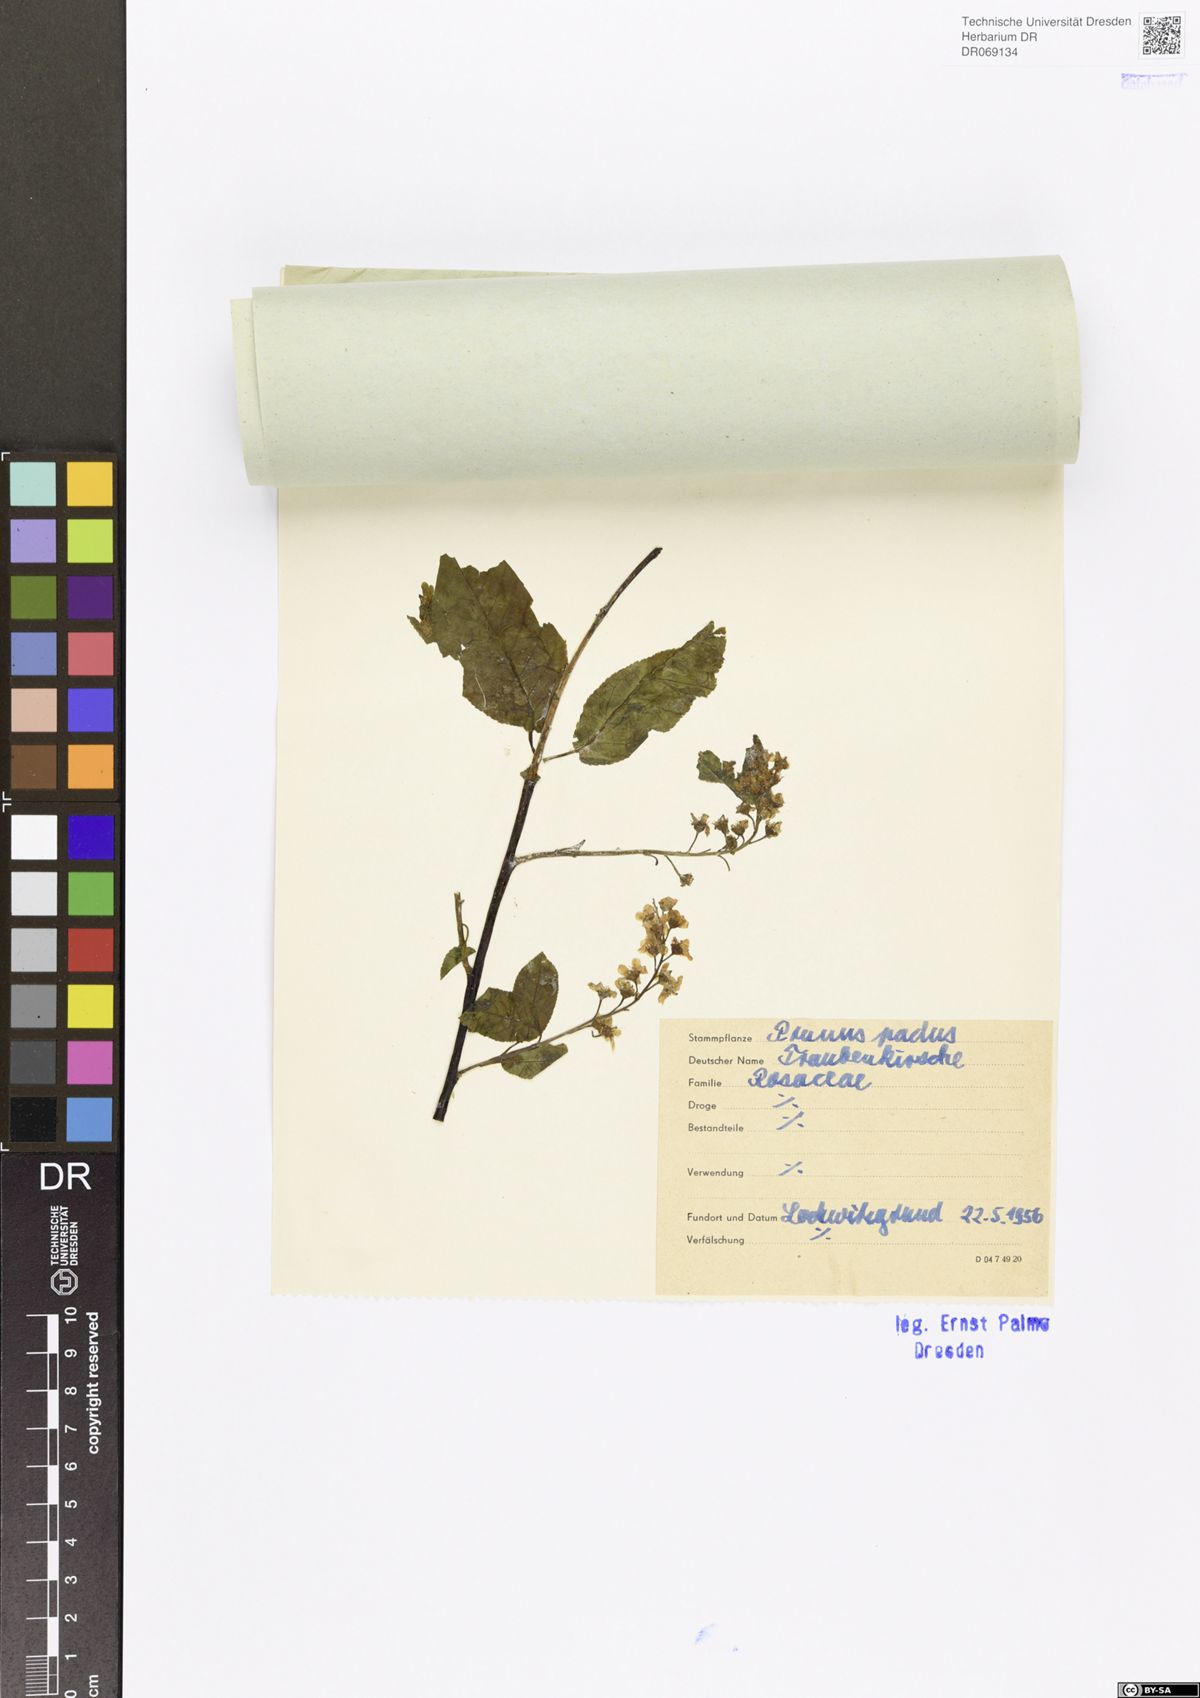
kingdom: Plantae
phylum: Tracheophyta
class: Magnoliopsida
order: Rosales
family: Rosaceae
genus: Prunus
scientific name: Prunus padus
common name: Bird cherry
